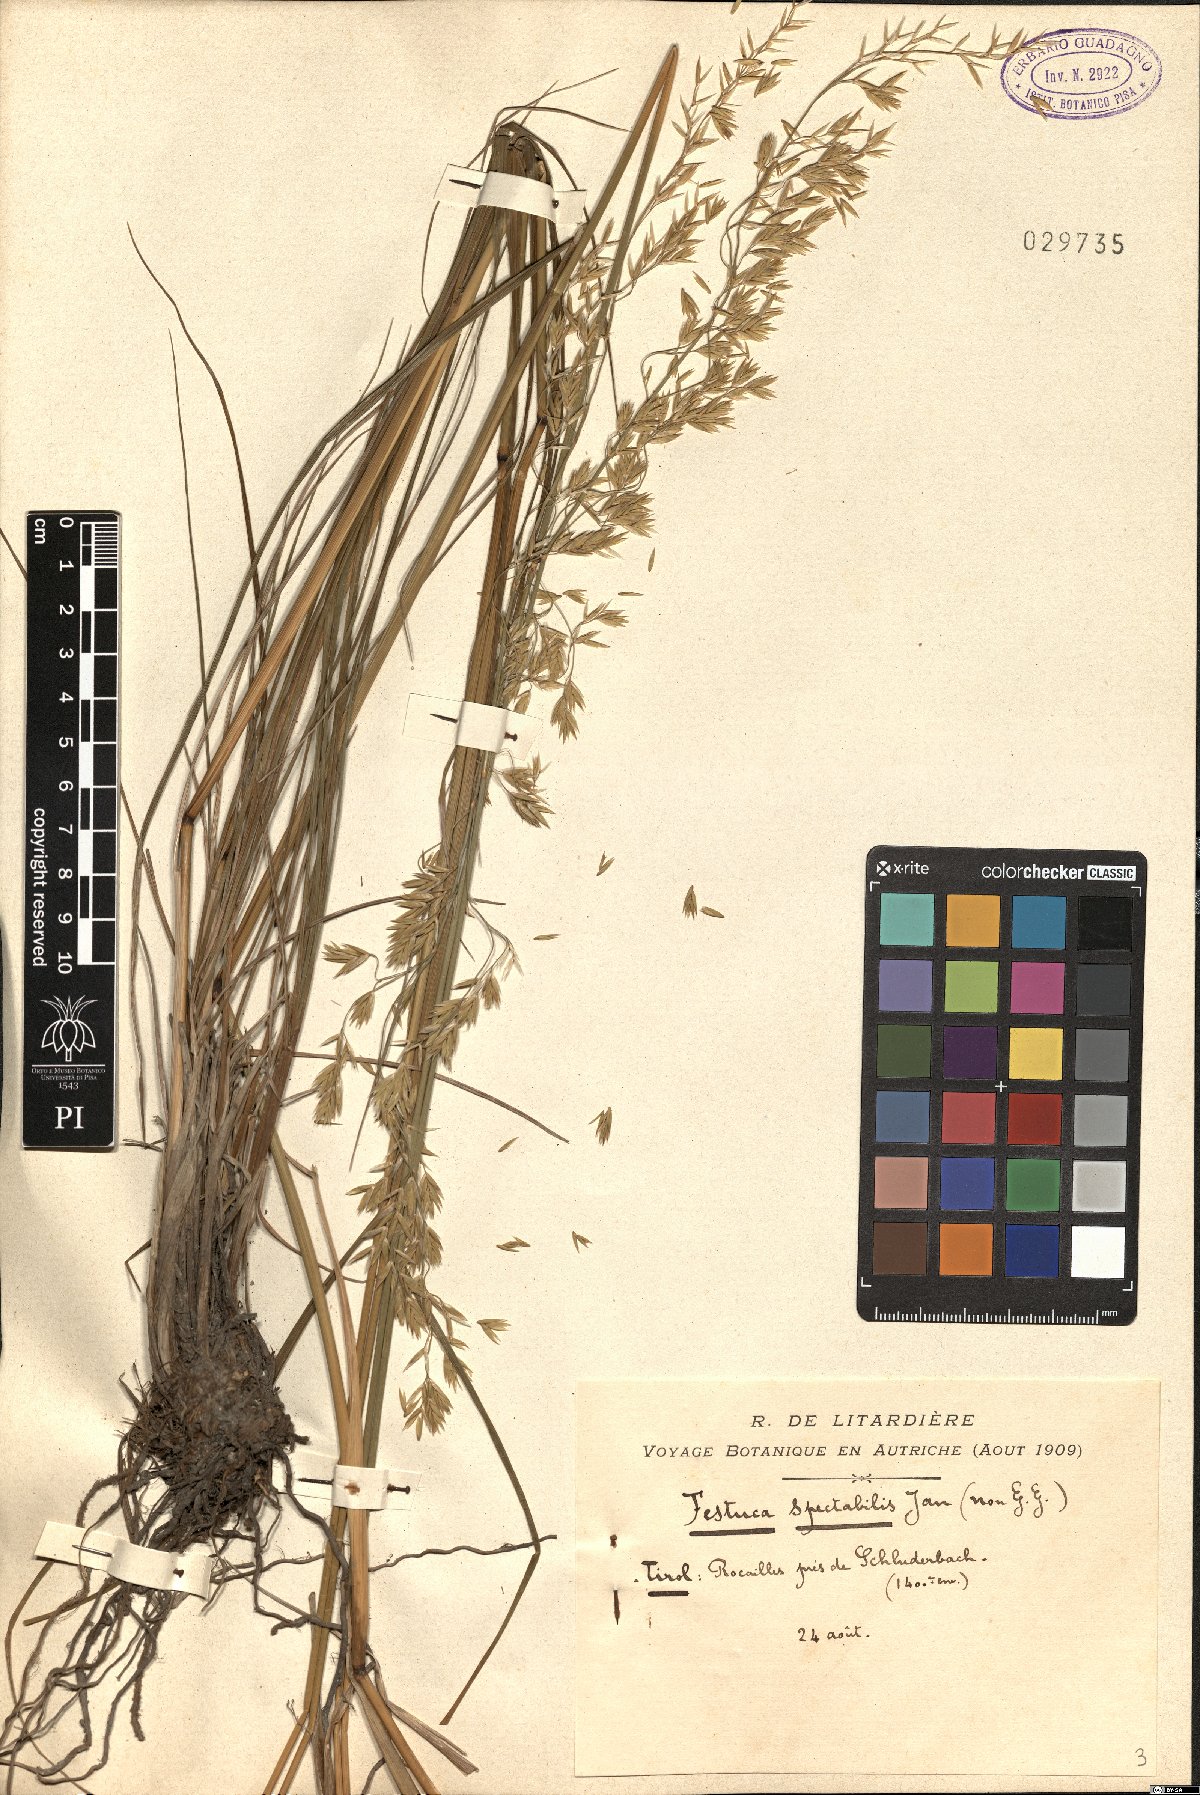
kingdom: Plantae
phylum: Tracheophyta
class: Liliopsida
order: Poales
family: Poaceae
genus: Festuca
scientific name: Festuca spectabilis
